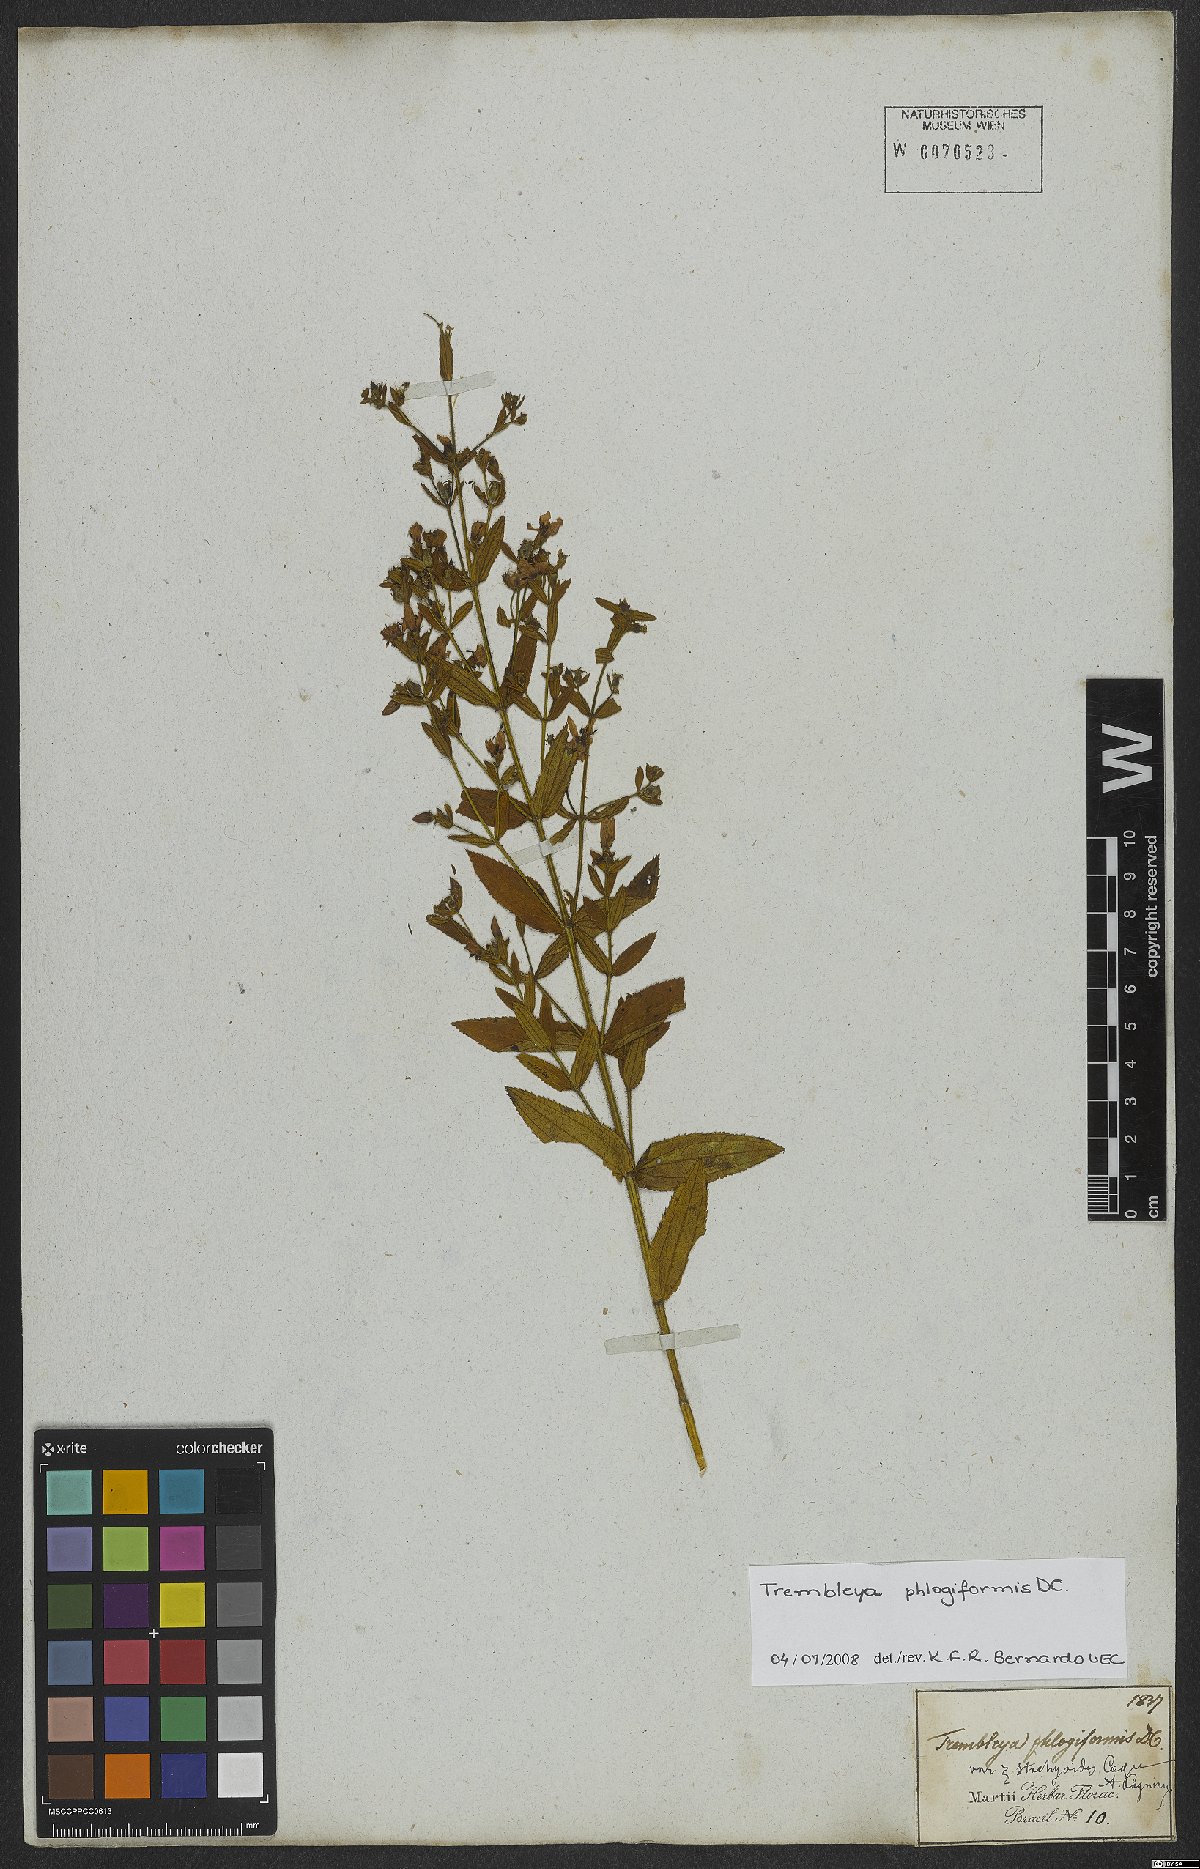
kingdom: Plantae
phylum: Tracheophyta
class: Magnoliopsida
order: Myrtales
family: Melastomataceae
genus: Microlicia
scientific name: Microlicia phlogiformis
